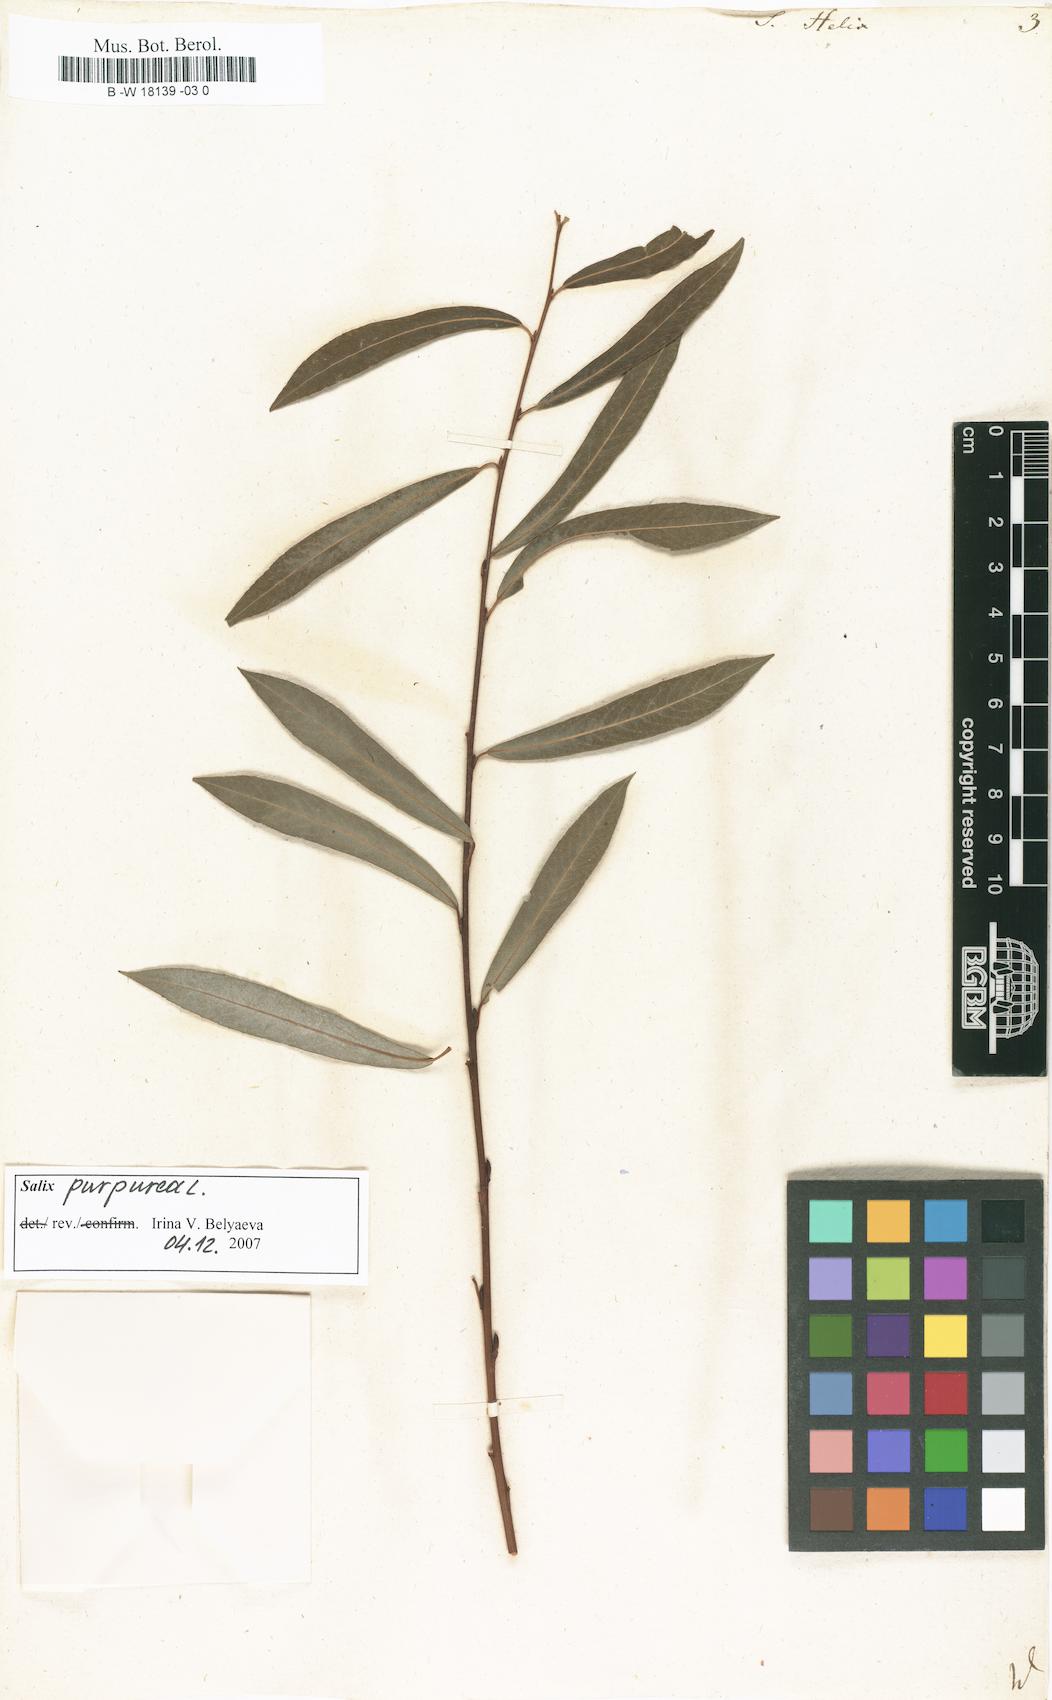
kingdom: Plantae
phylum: Tracheophyta
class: Magnoliopsida
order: Malpighiales
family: Salicaceae
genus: Salix
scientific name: Salix purpurea
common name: Purple willow
